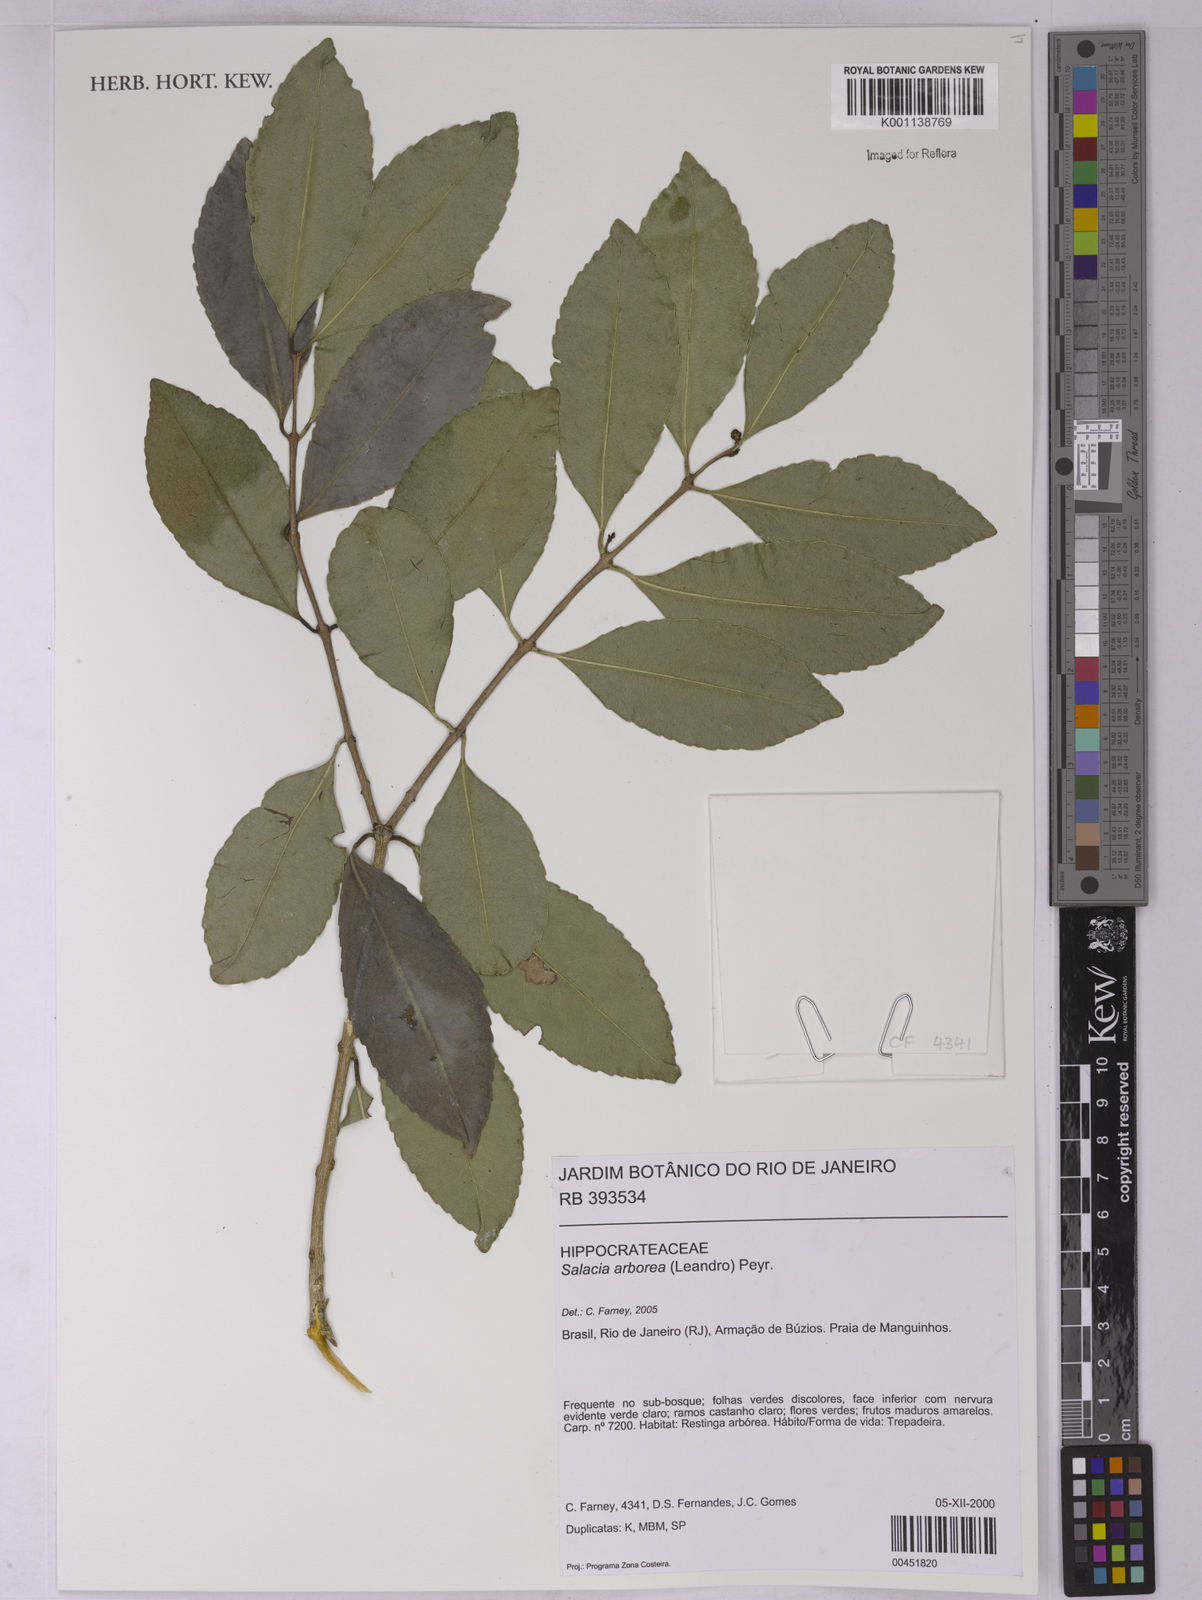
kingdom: Plantae
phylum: Tracheophyta
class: Magnoliopsida
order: Celastrales
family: Celastraceae
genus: Salacia
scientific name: Salacia arborea
